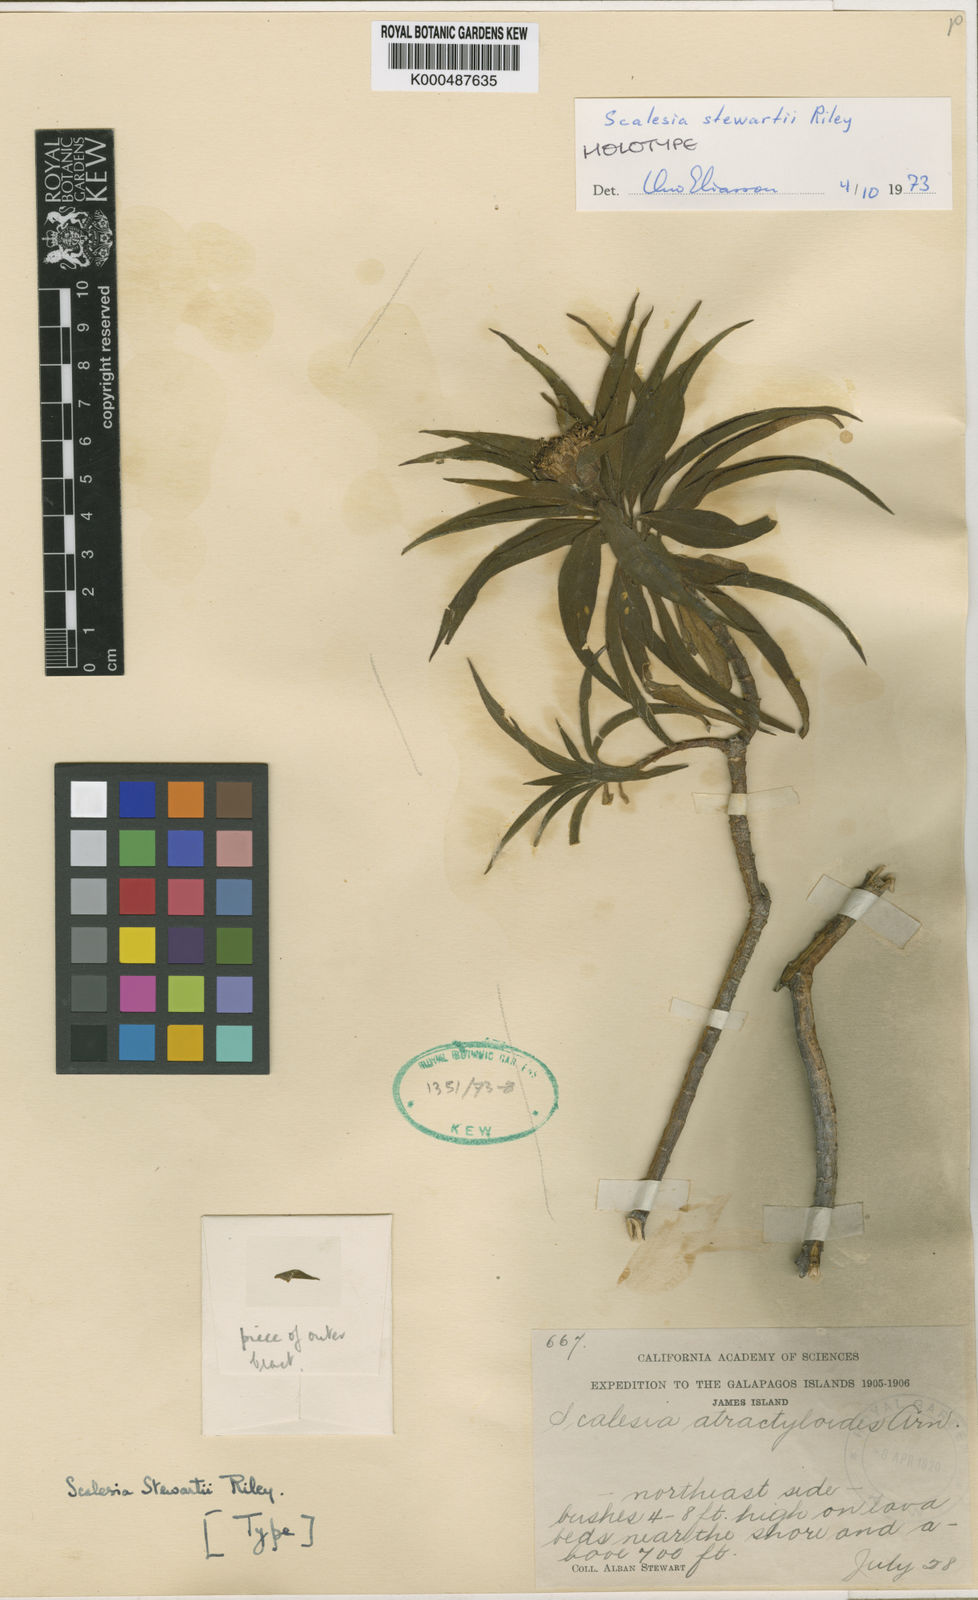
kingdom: Plantae
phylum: Tracheophyta
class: Magnoliopsida
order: Asterales
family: Asteraceae
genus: Scalesia
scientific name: Scalesia stewartii
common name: Stewart's scalesia
